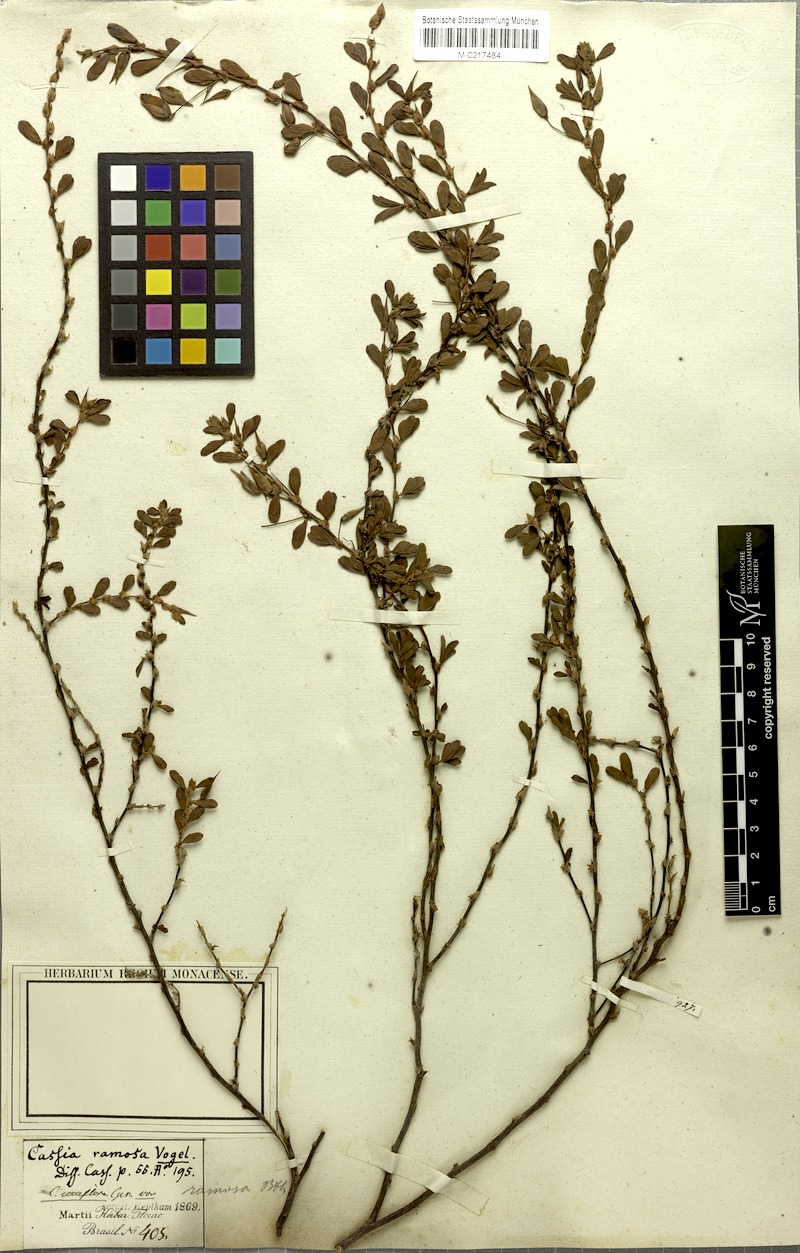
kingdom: Plantae
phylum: Tracheophyta
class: Magnoliopsida
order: Fabales
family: Fabaceae
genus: Chamaecrista
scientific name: Chamaecrista ramosa
